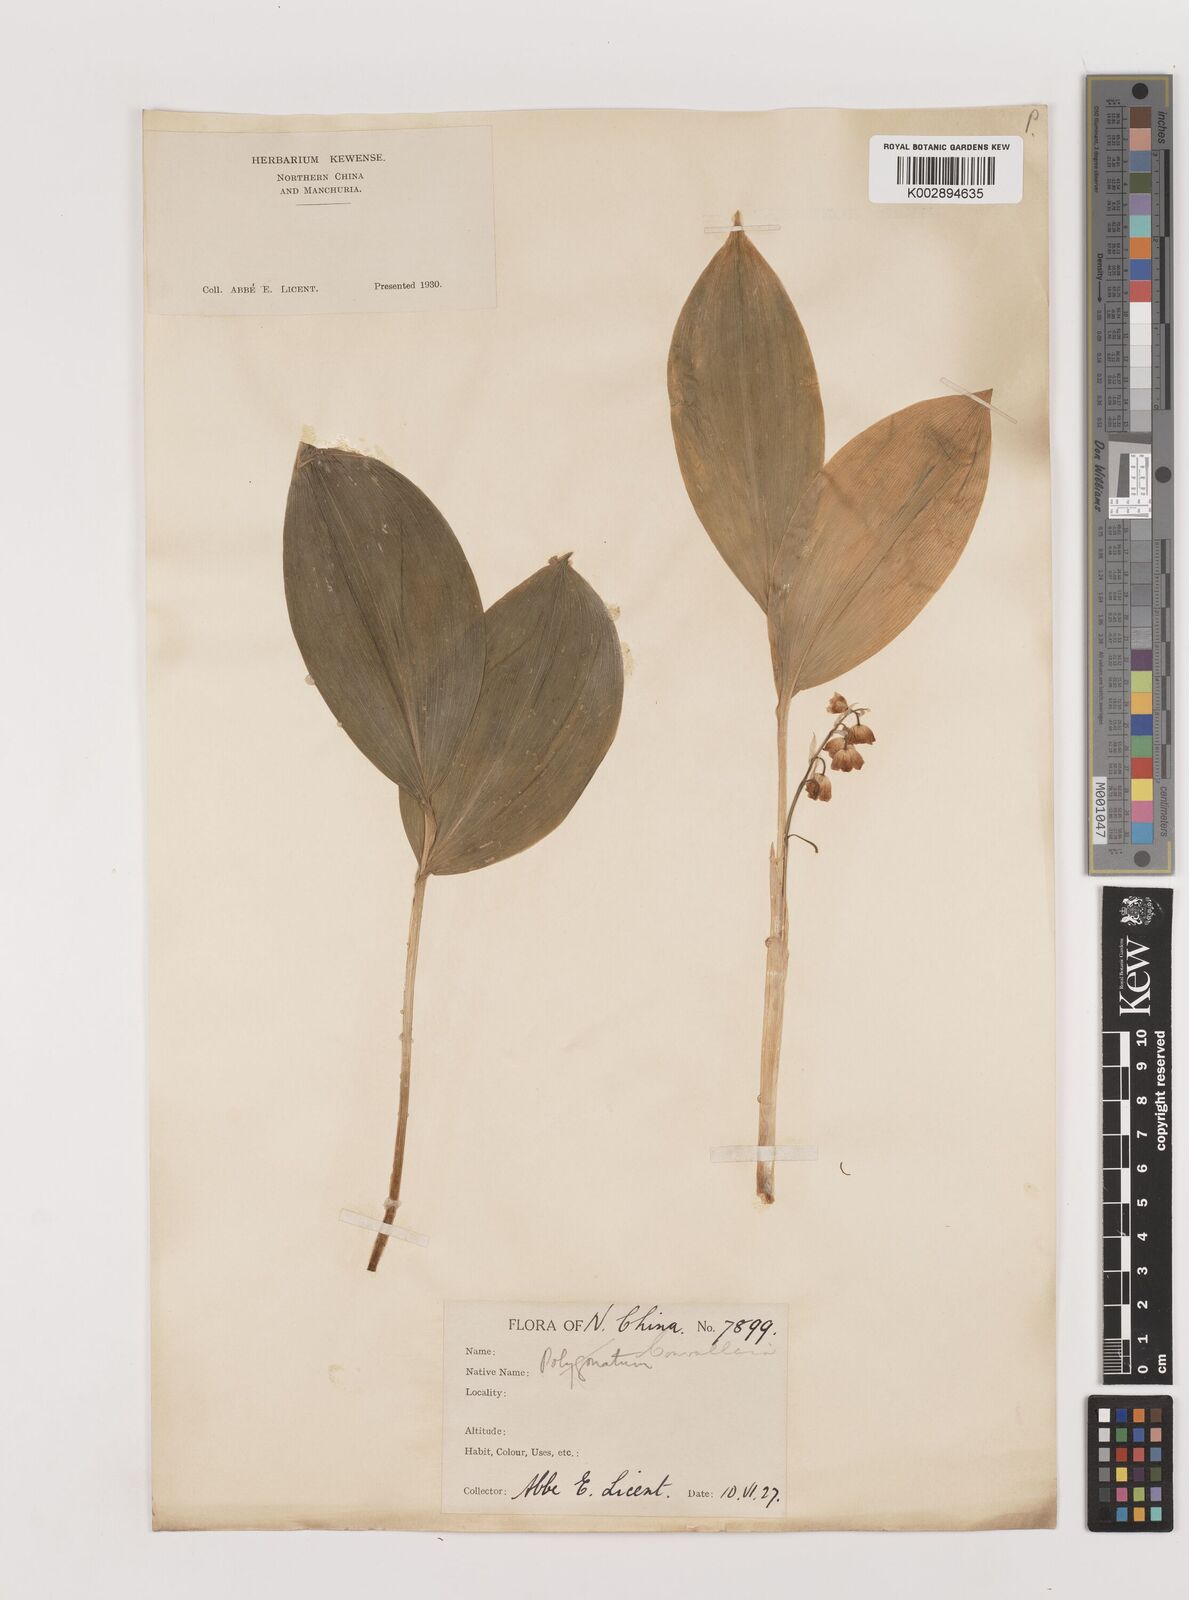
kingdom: Plantae
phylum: Tracheophyta
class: Liliopsida
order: Asparagales
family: Asparagaceae
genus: Ophiopogon
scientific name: Ophiopogon
